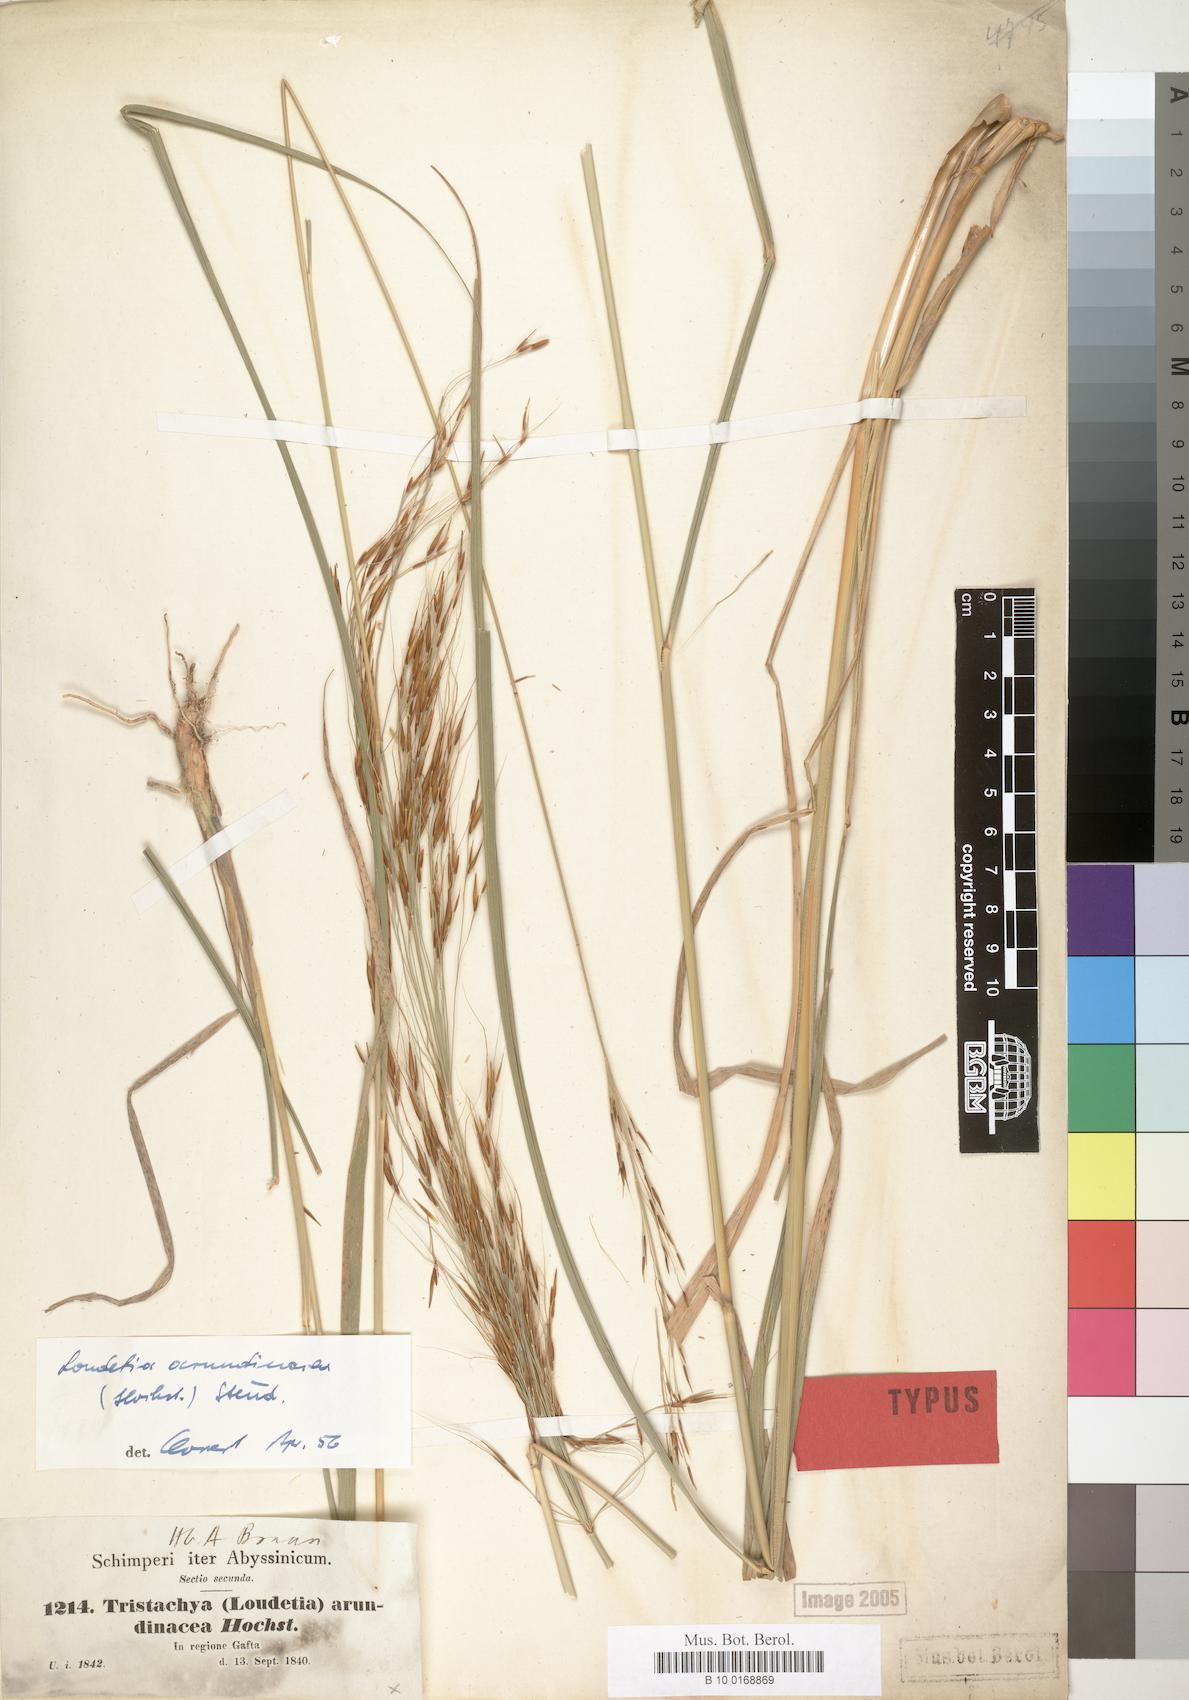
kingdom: Plantae
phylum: Tracheophyta
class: Liliopsida
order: Poales
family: Poaceae
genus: Loudetia
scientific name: Loudetia arundinacea
